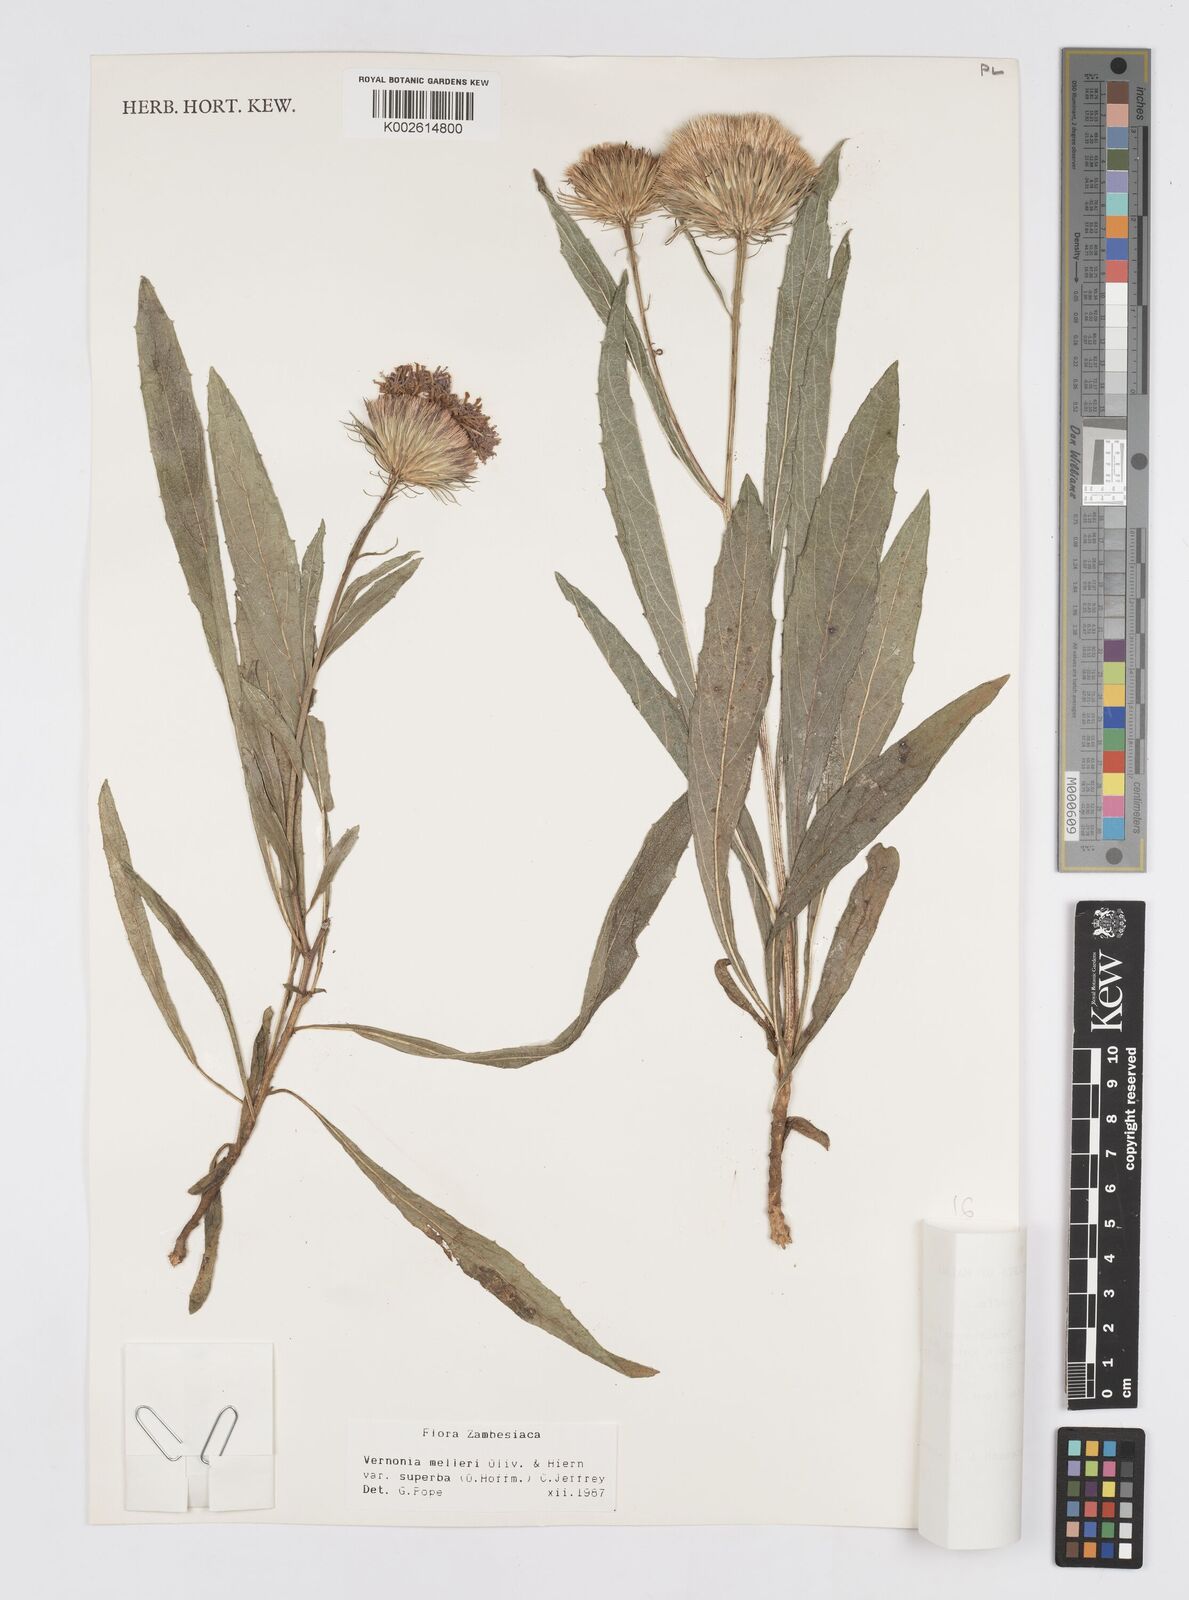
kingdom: Plantae
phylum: Tracheophyta
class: Magnoliopsida
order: Asterales
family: Asteraceae
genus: Linzia
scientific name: Linzia melleri
